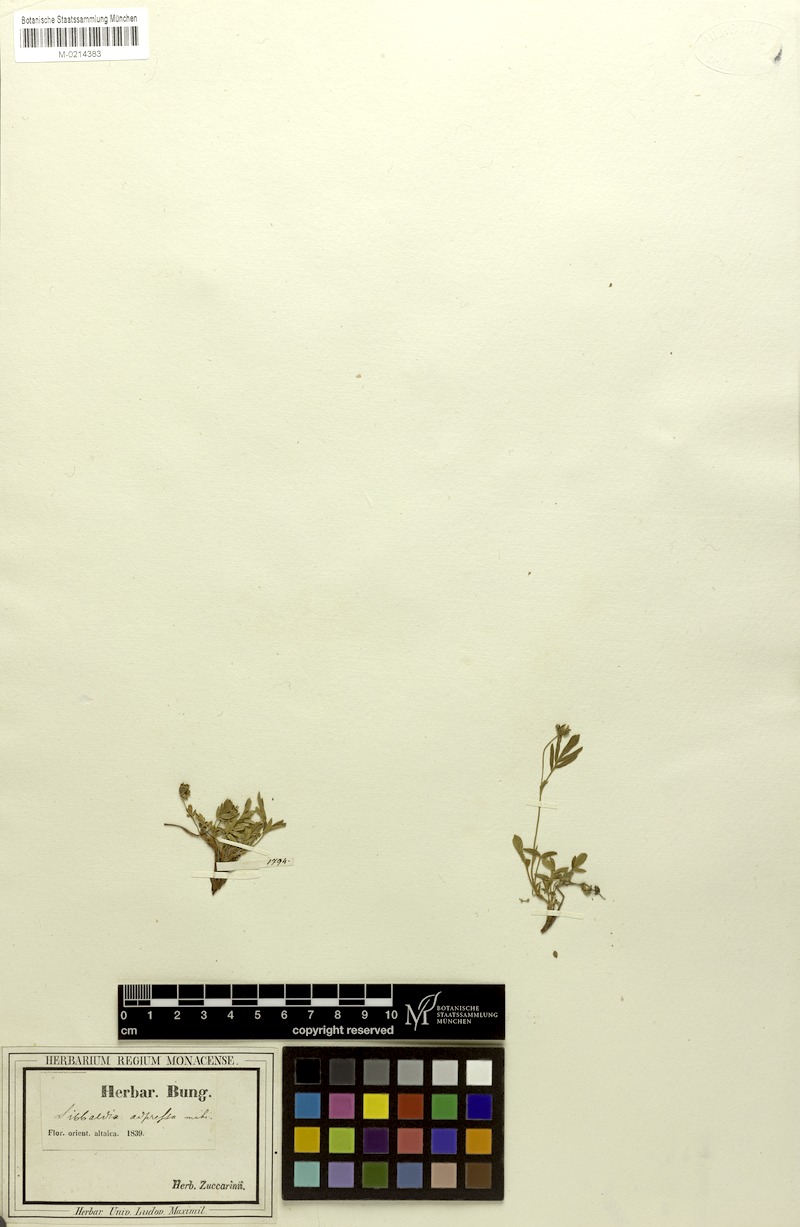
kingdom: Plantae
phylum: Tracheophyta
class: Magnoliopsida
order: Rosales
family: Rosaceae
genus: Sibbaldianthe
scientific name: Sibbaldianthe adpressa
